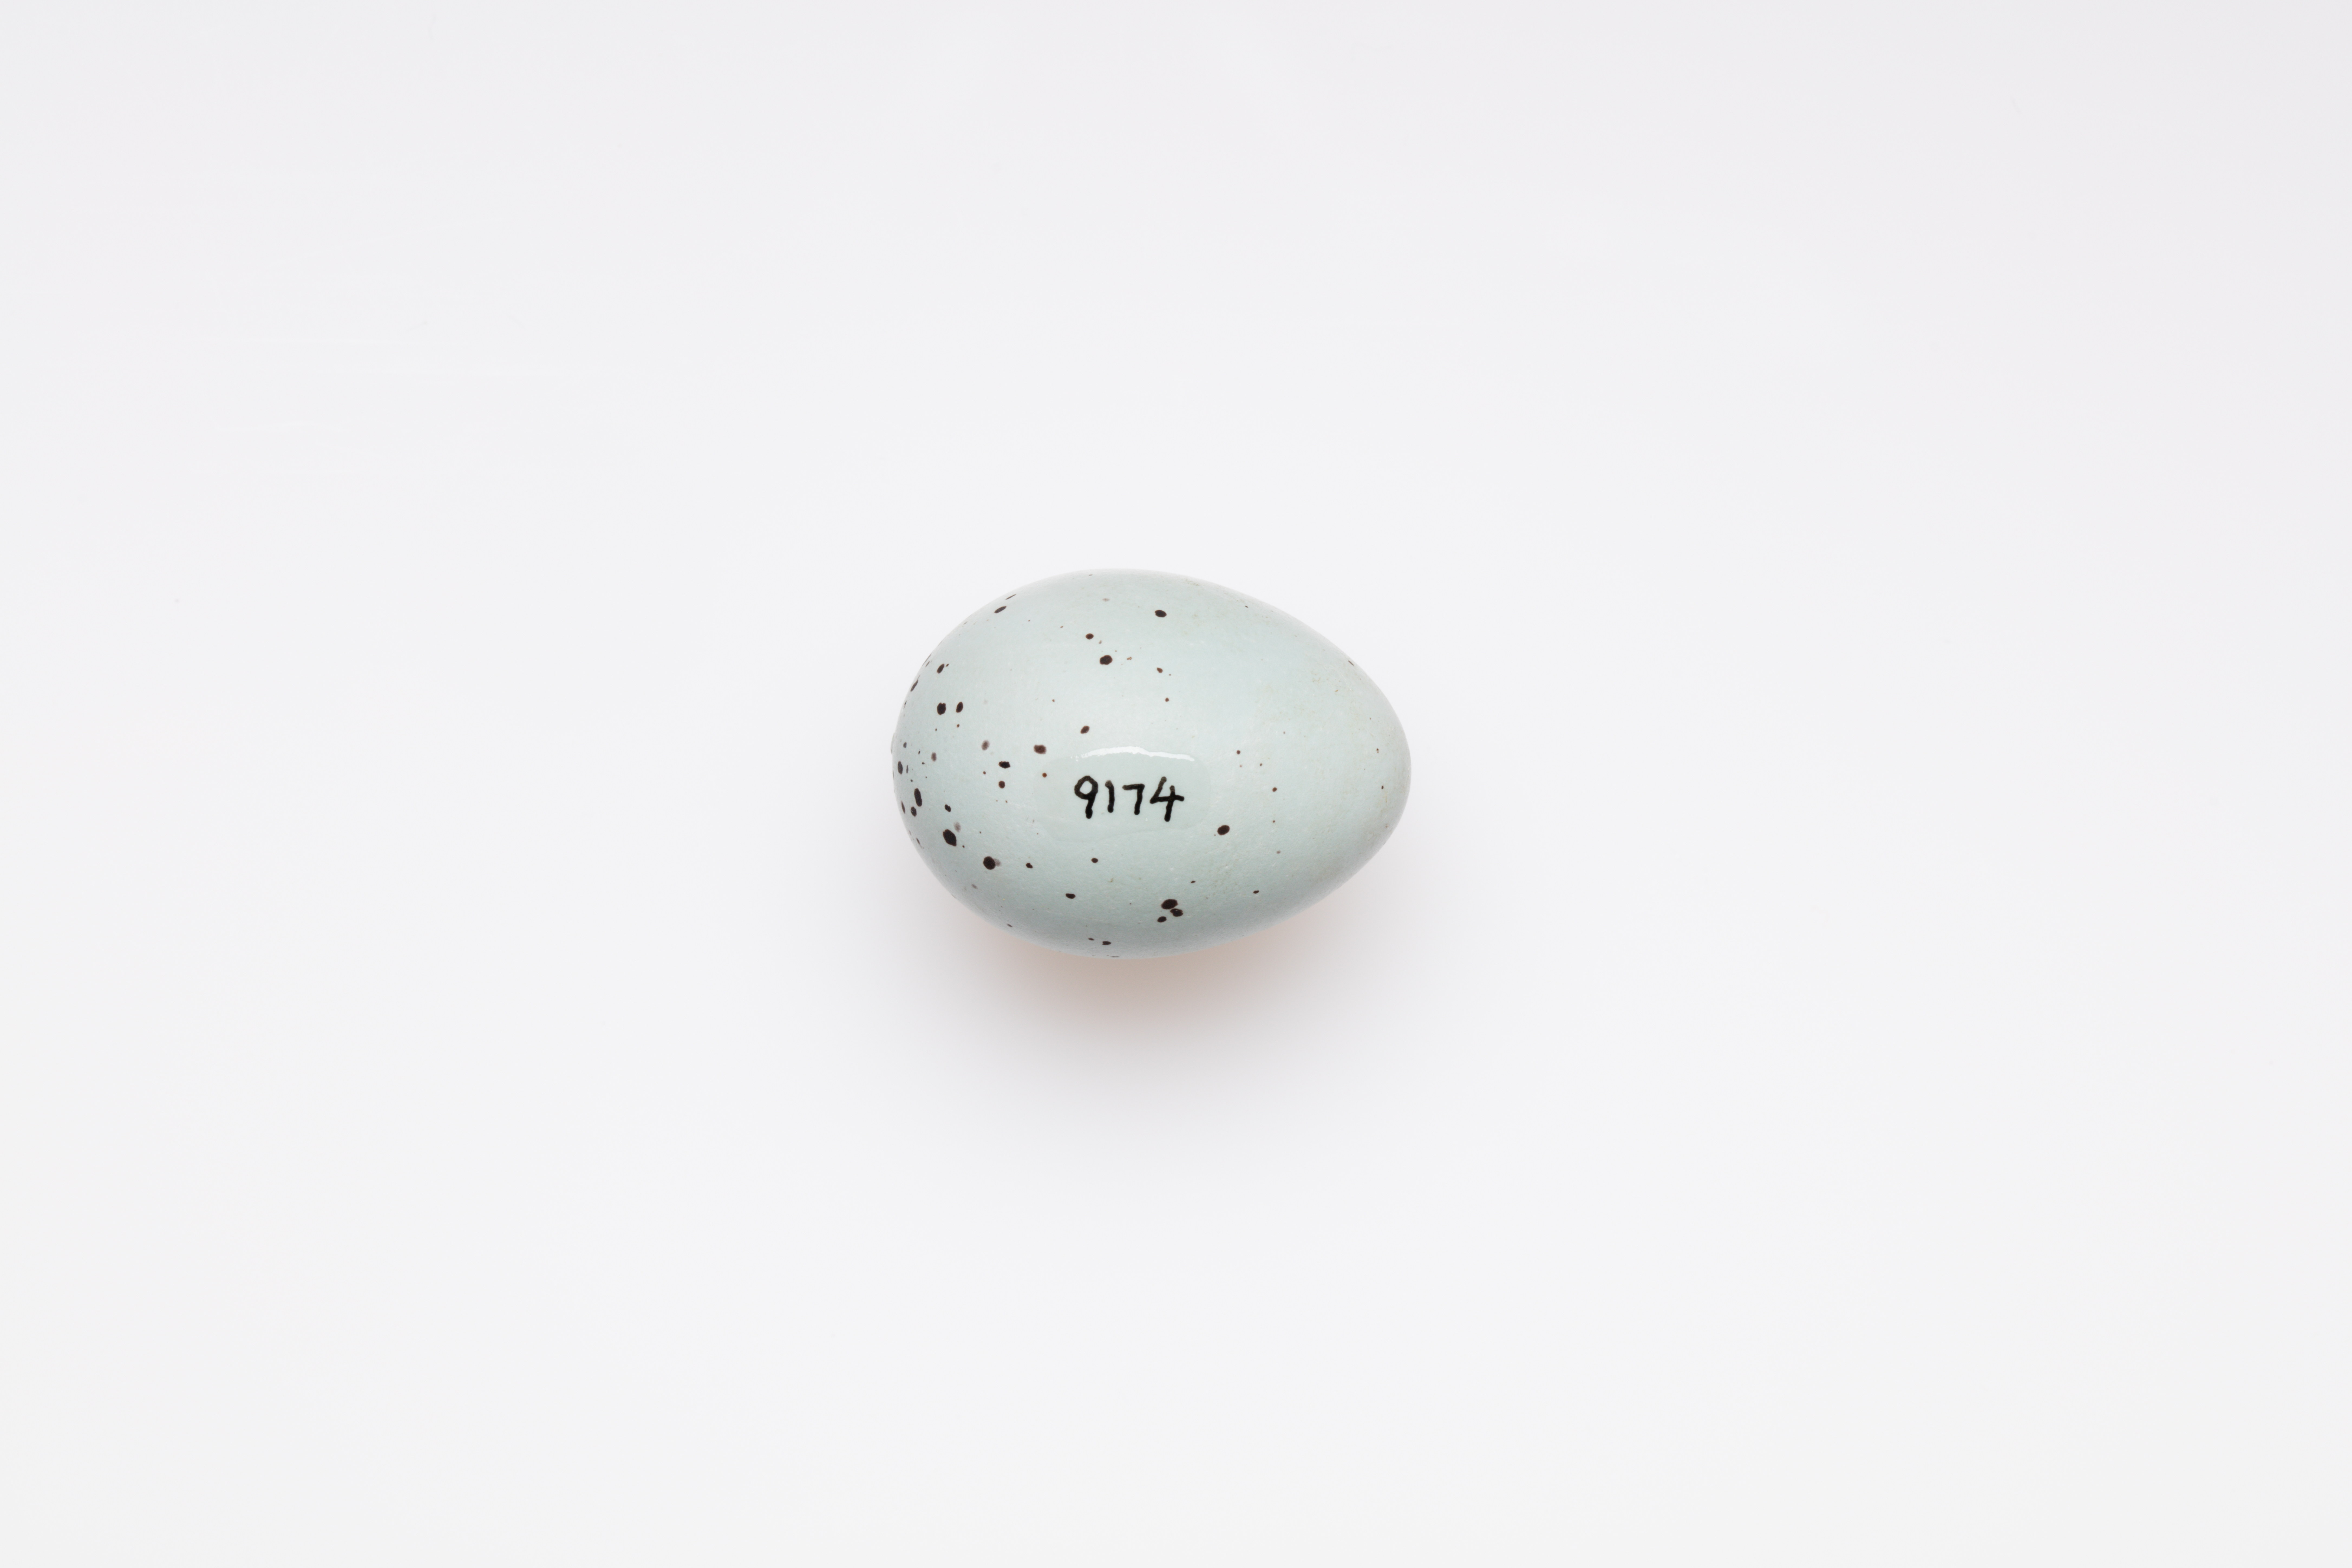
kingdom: Animalia
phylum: Chordata
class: Aves
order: Passeriformes
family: Turdidae
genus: Turdus
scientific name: Turdus philomelos
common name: Song thrush
